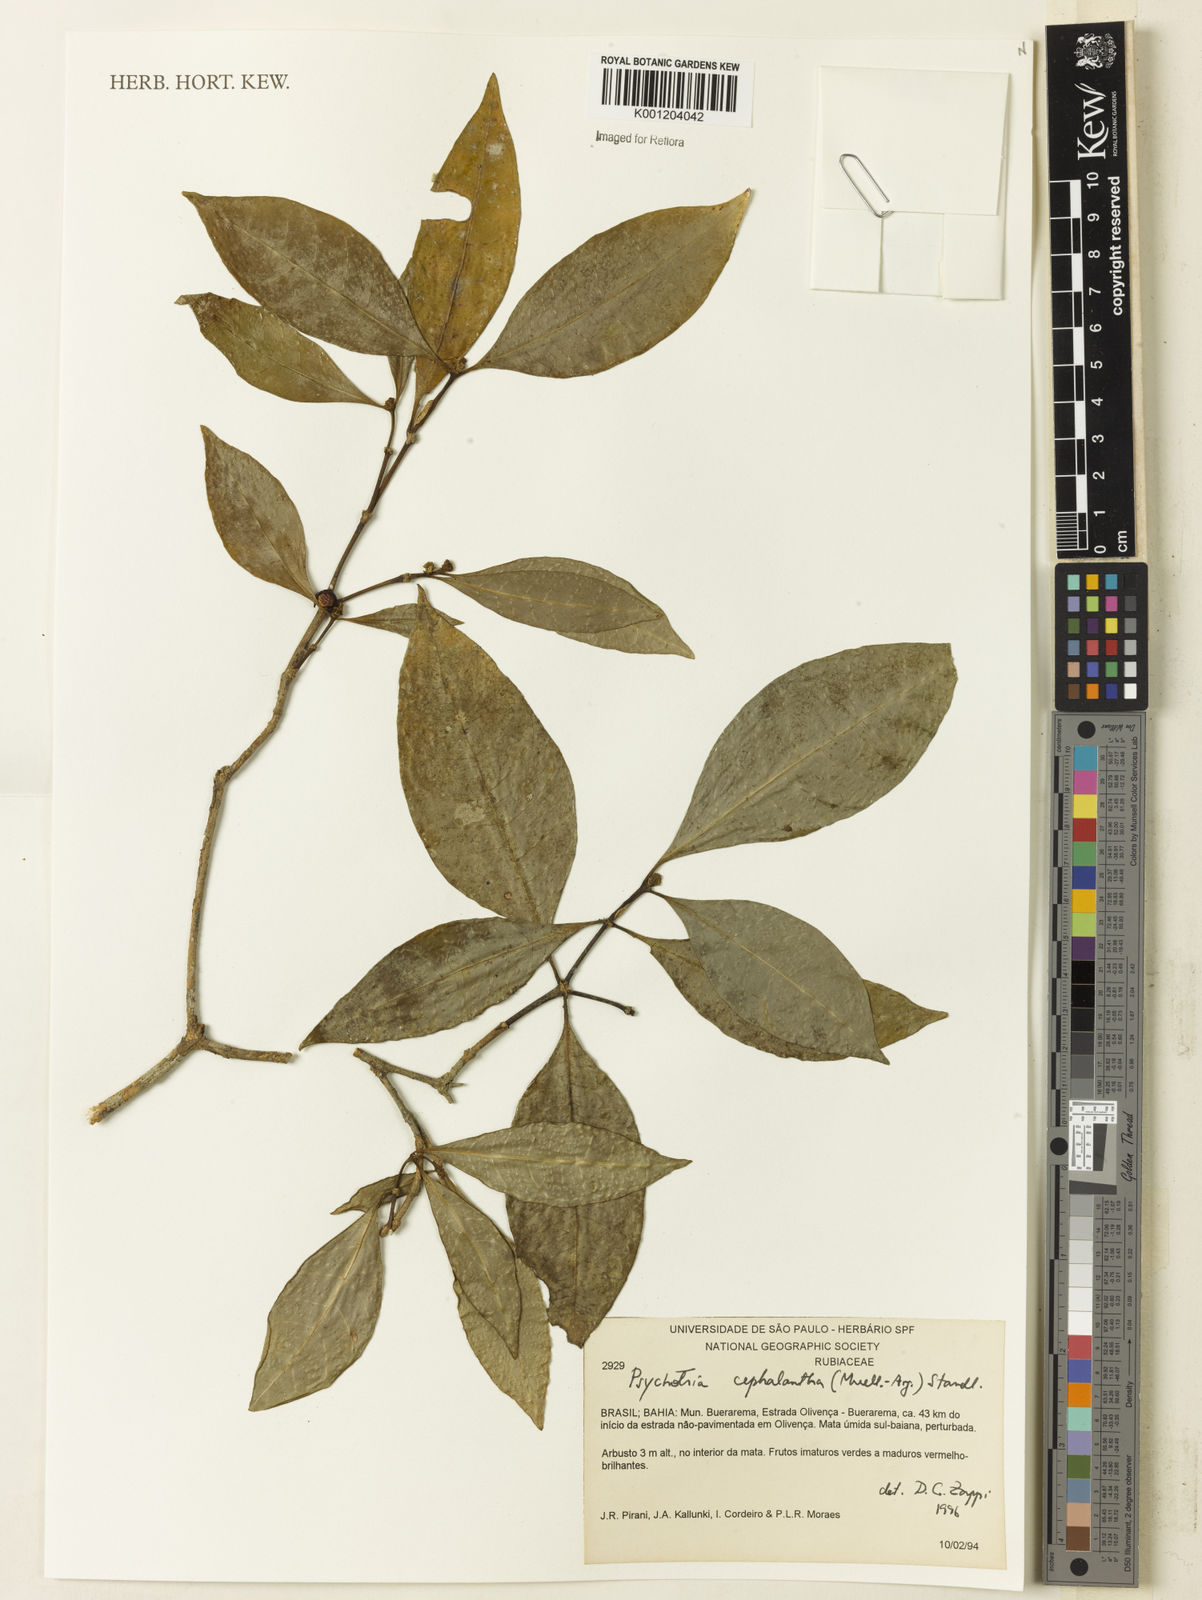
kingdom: Plantae
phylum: Tracheophyta
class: Magnoliopsida
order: Gentianales
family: Rubiaceae
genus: Eumachia
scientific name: Eumachia
